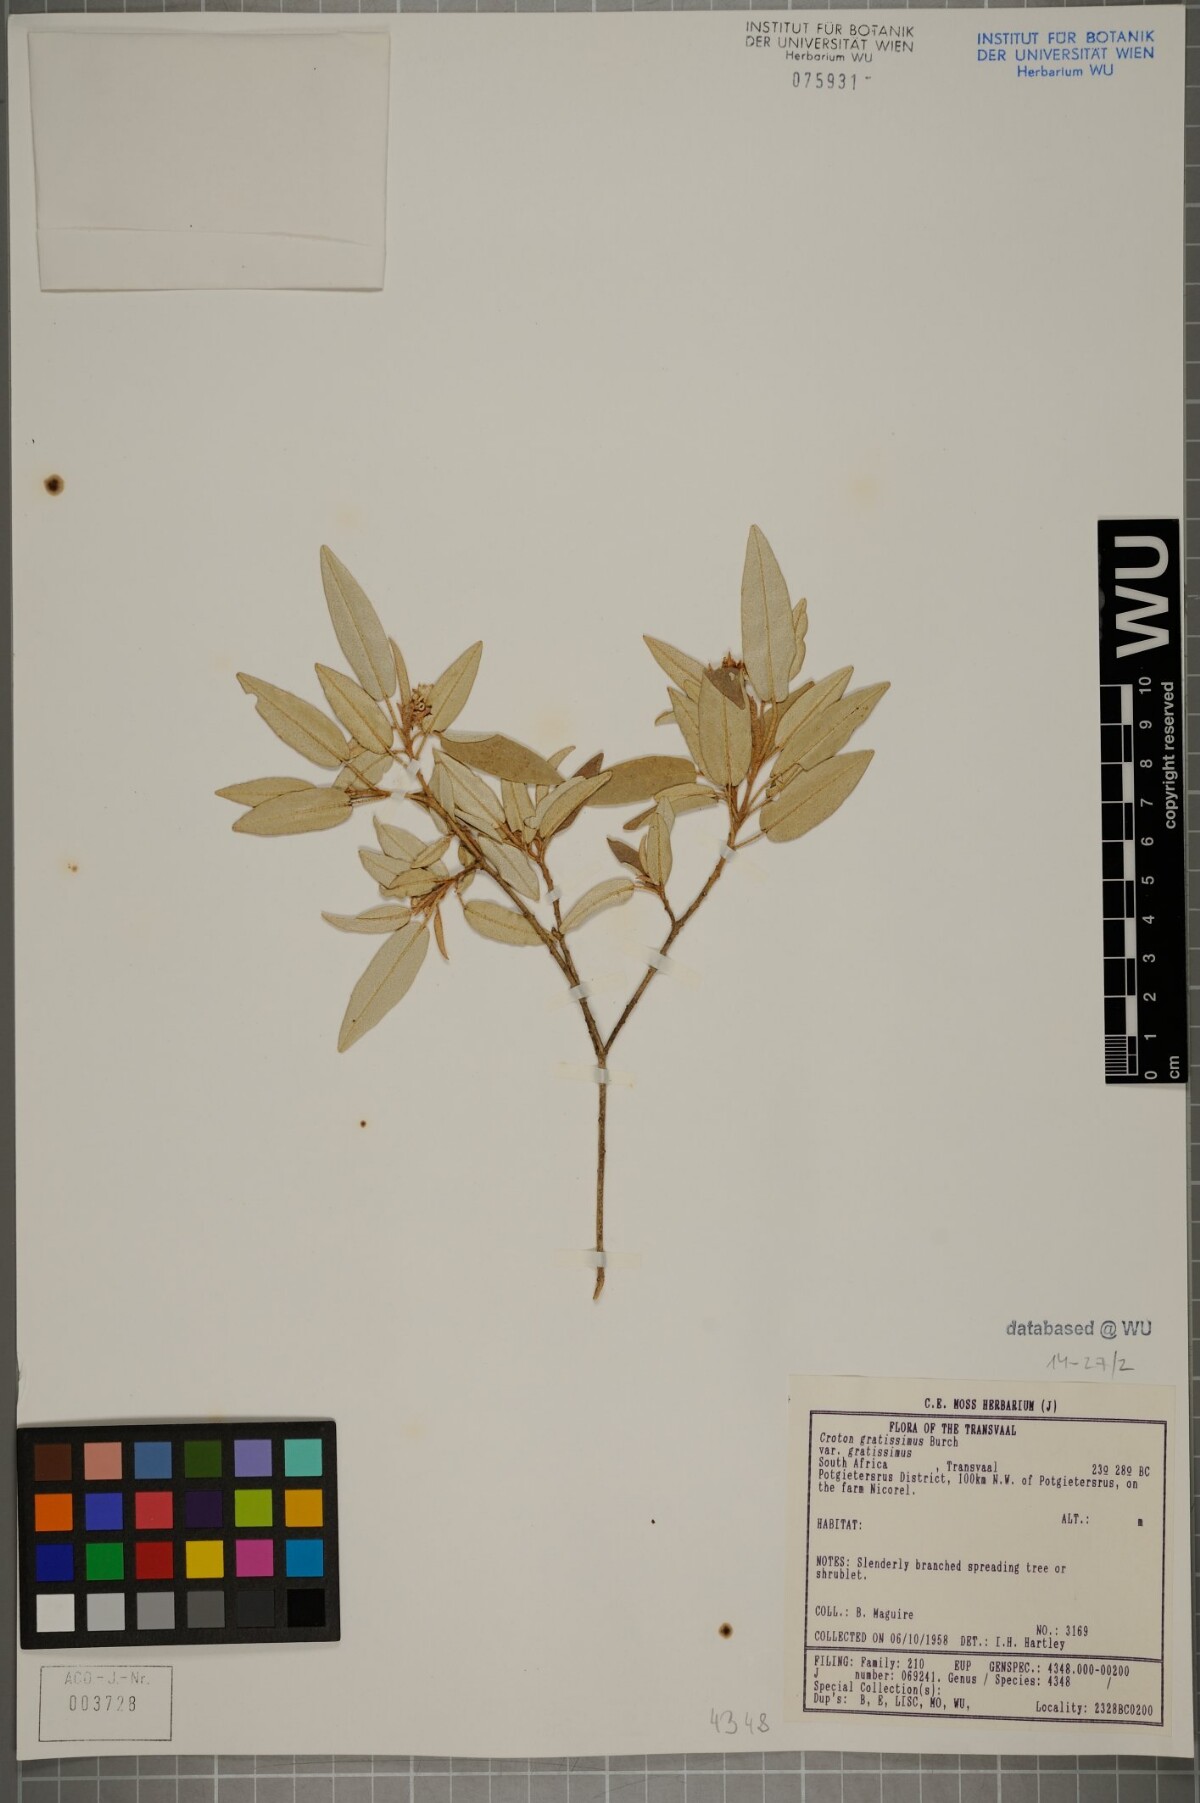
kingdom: Plantae
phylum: Tracheophyta
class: Magnoliopsida
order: Malpighiales
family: Euphorbiaceae
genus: Croton
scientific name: Croton gratissimus
